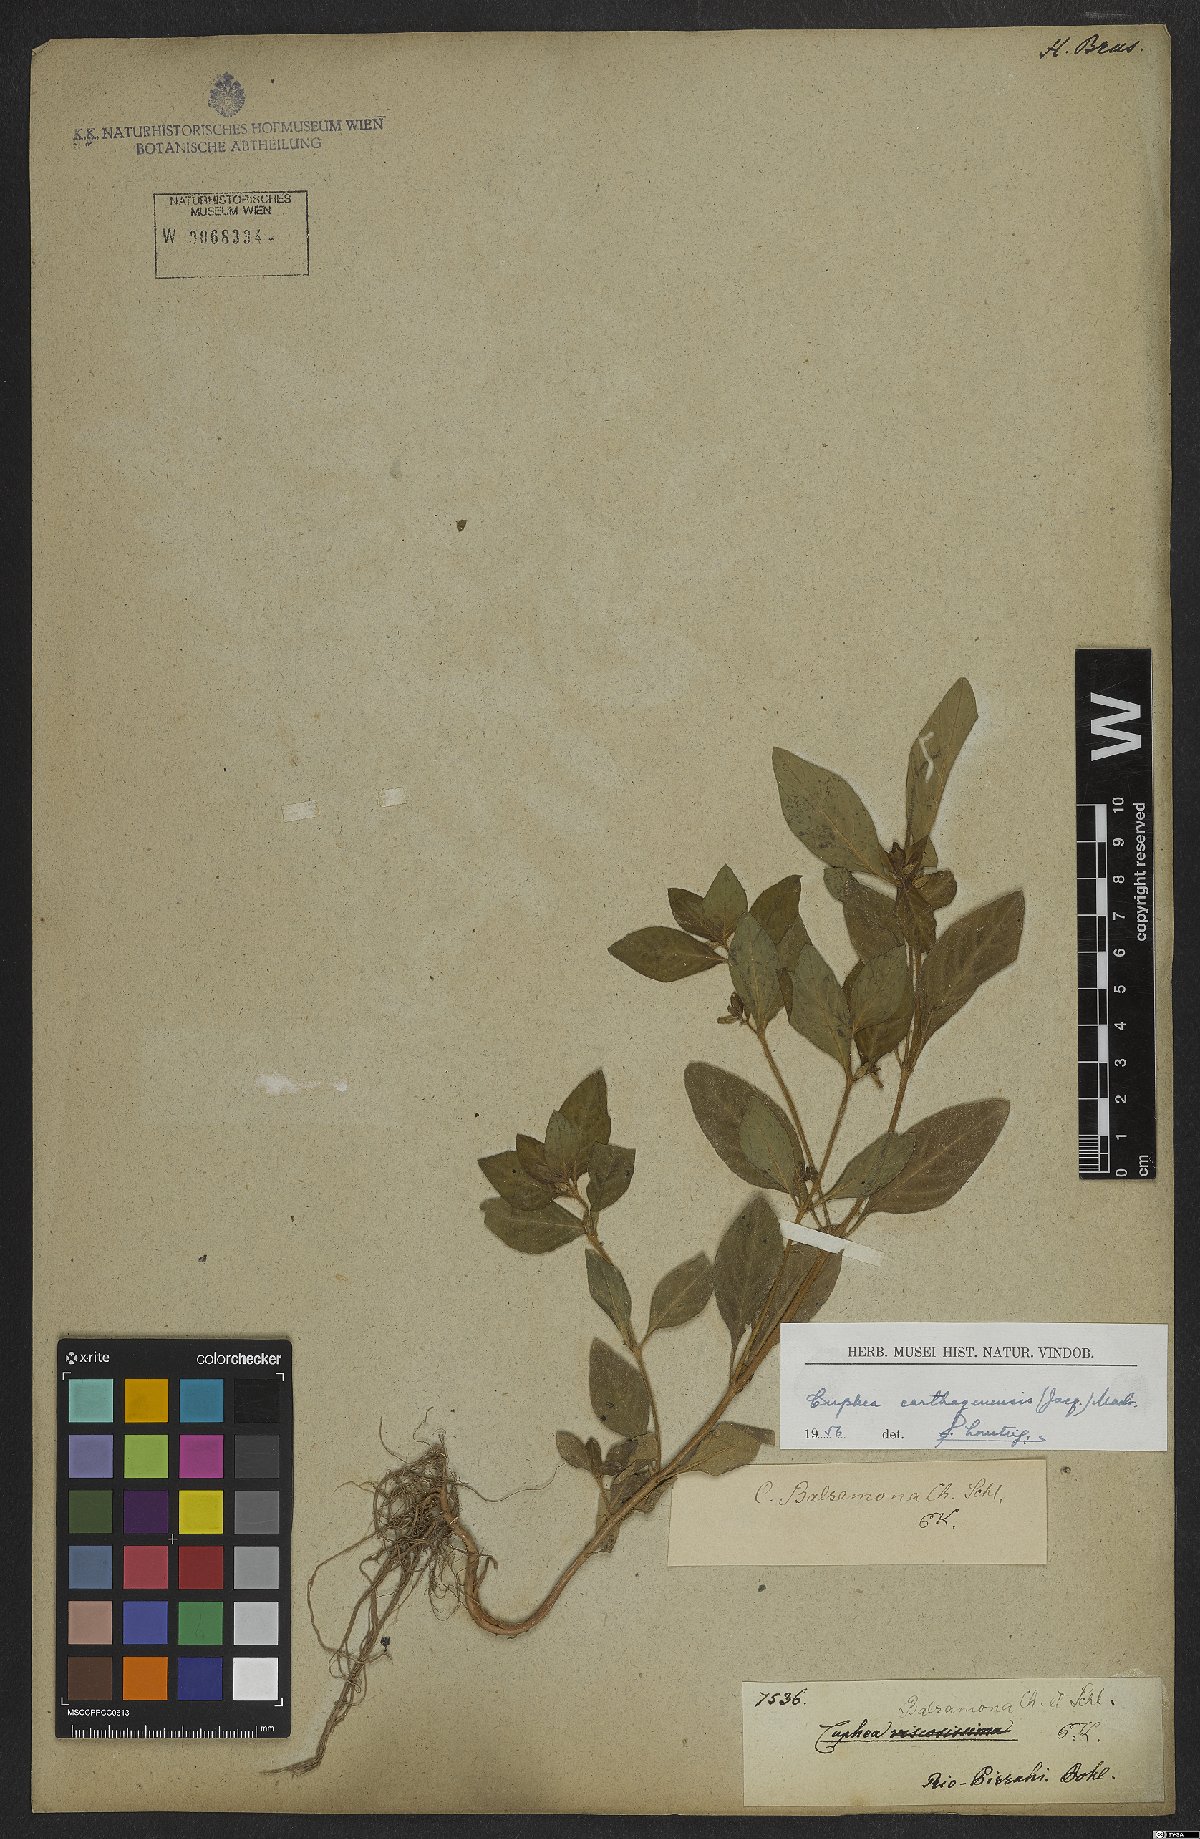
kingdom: Plantae
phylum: Tracheophyta
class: Magnoliopsida
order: Myrtales
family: Lythraceae
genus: Cuphea
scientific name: Cuphea carthagenensis
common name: Colombian waxweed
